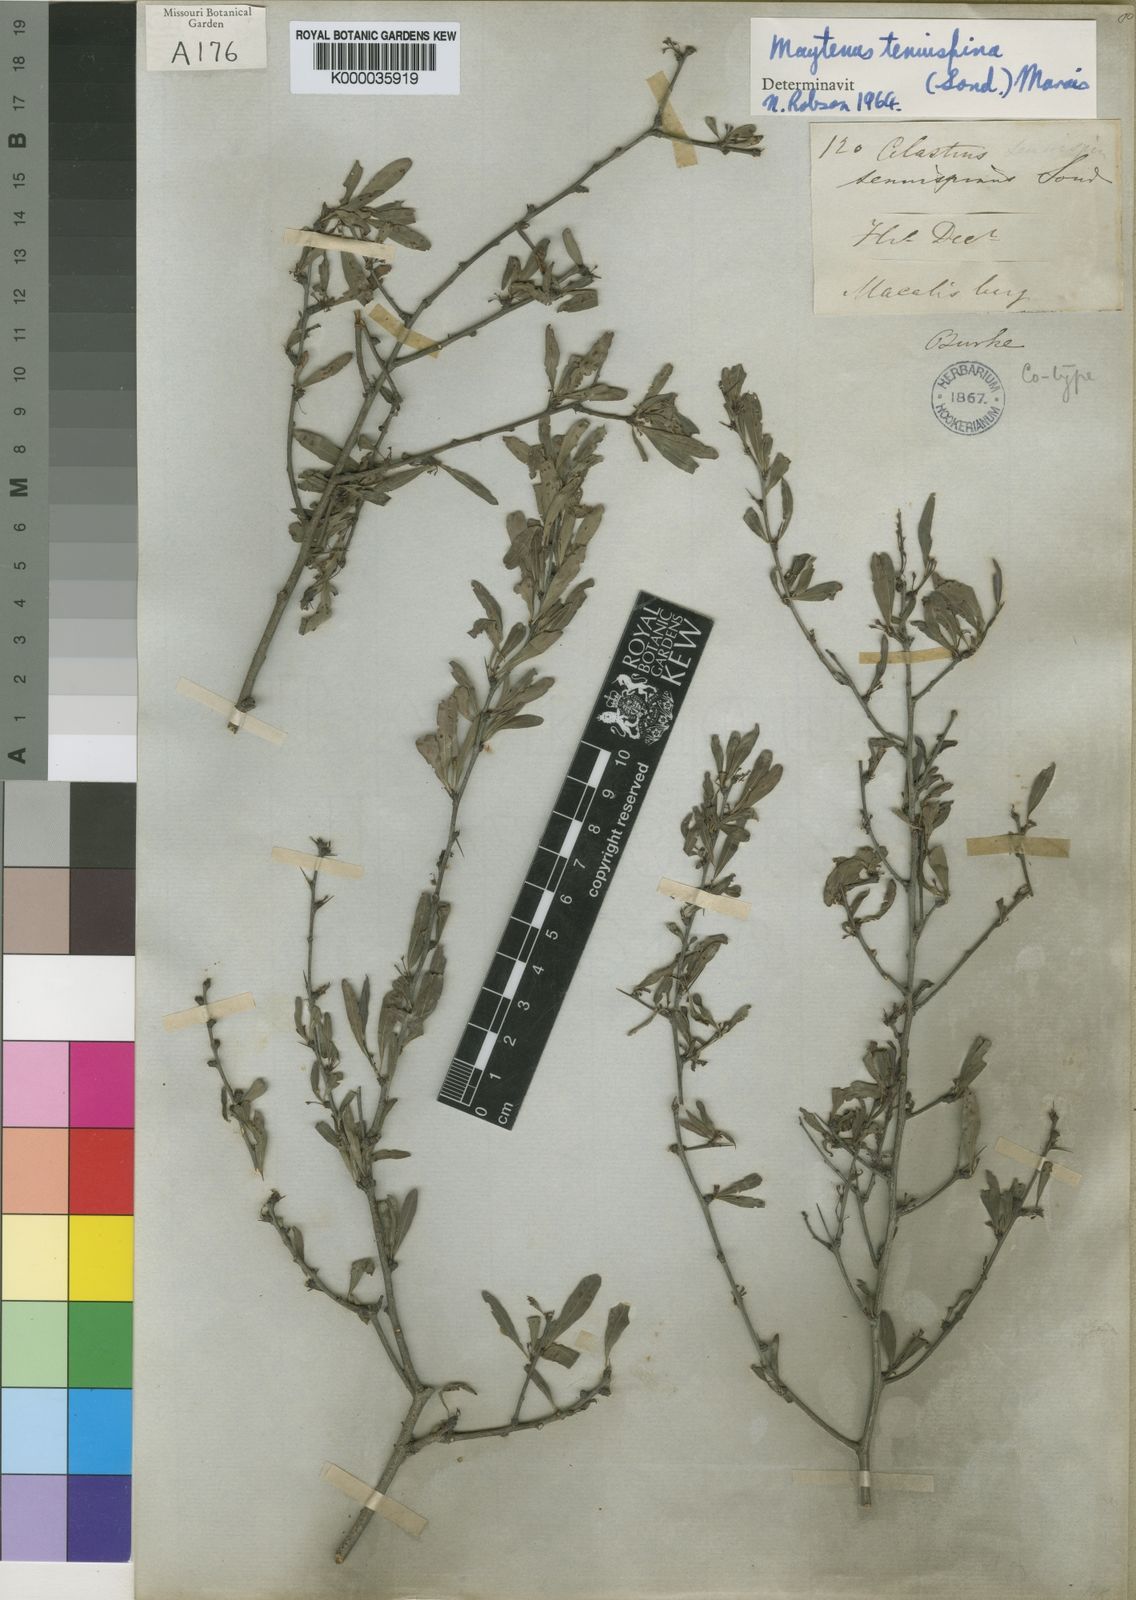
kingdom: Plantae
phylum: Tracheophyta
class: Magnoliopsida
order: Celastrales
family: Celastraceae
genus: Gymnosporia
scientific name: Gymnosporia tenuispina
